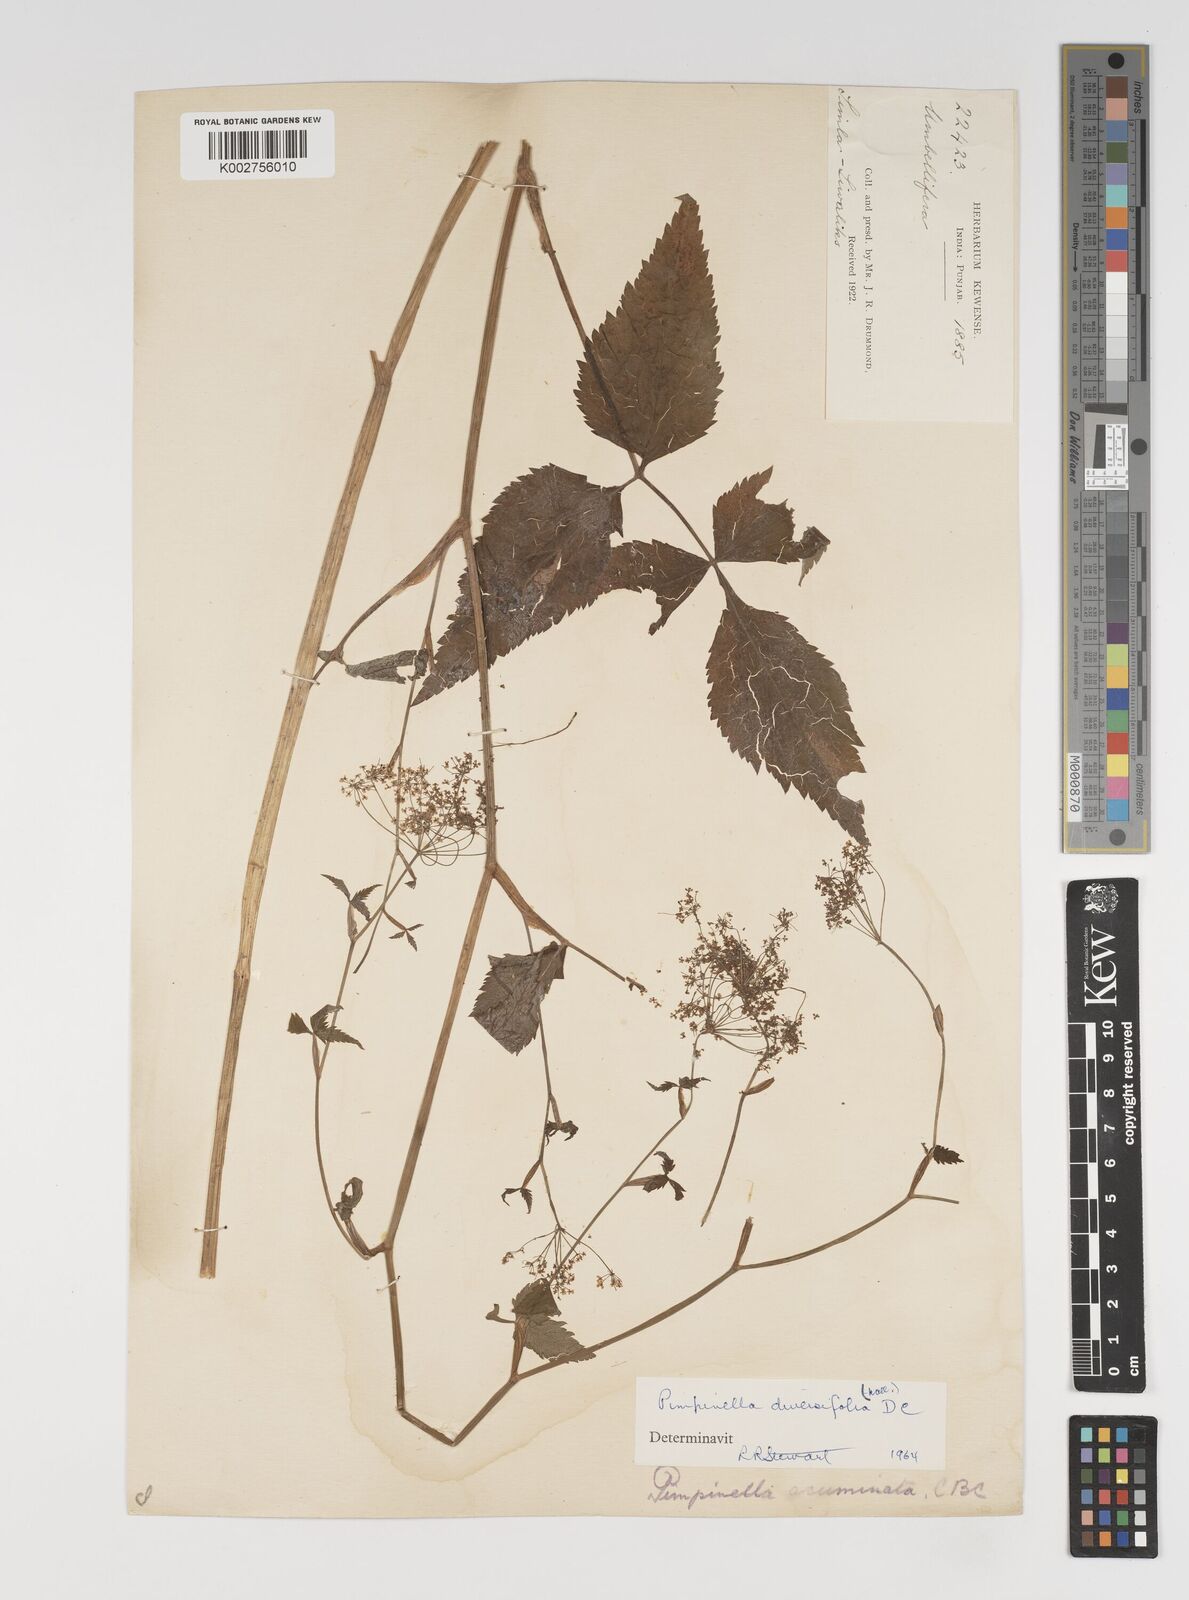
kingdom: Plantae
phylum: Tracheophyta
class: Magnoliopsida
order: Apiales
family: Apiaceae
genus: Pimpinella
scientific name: Pimpinella diversifolia
